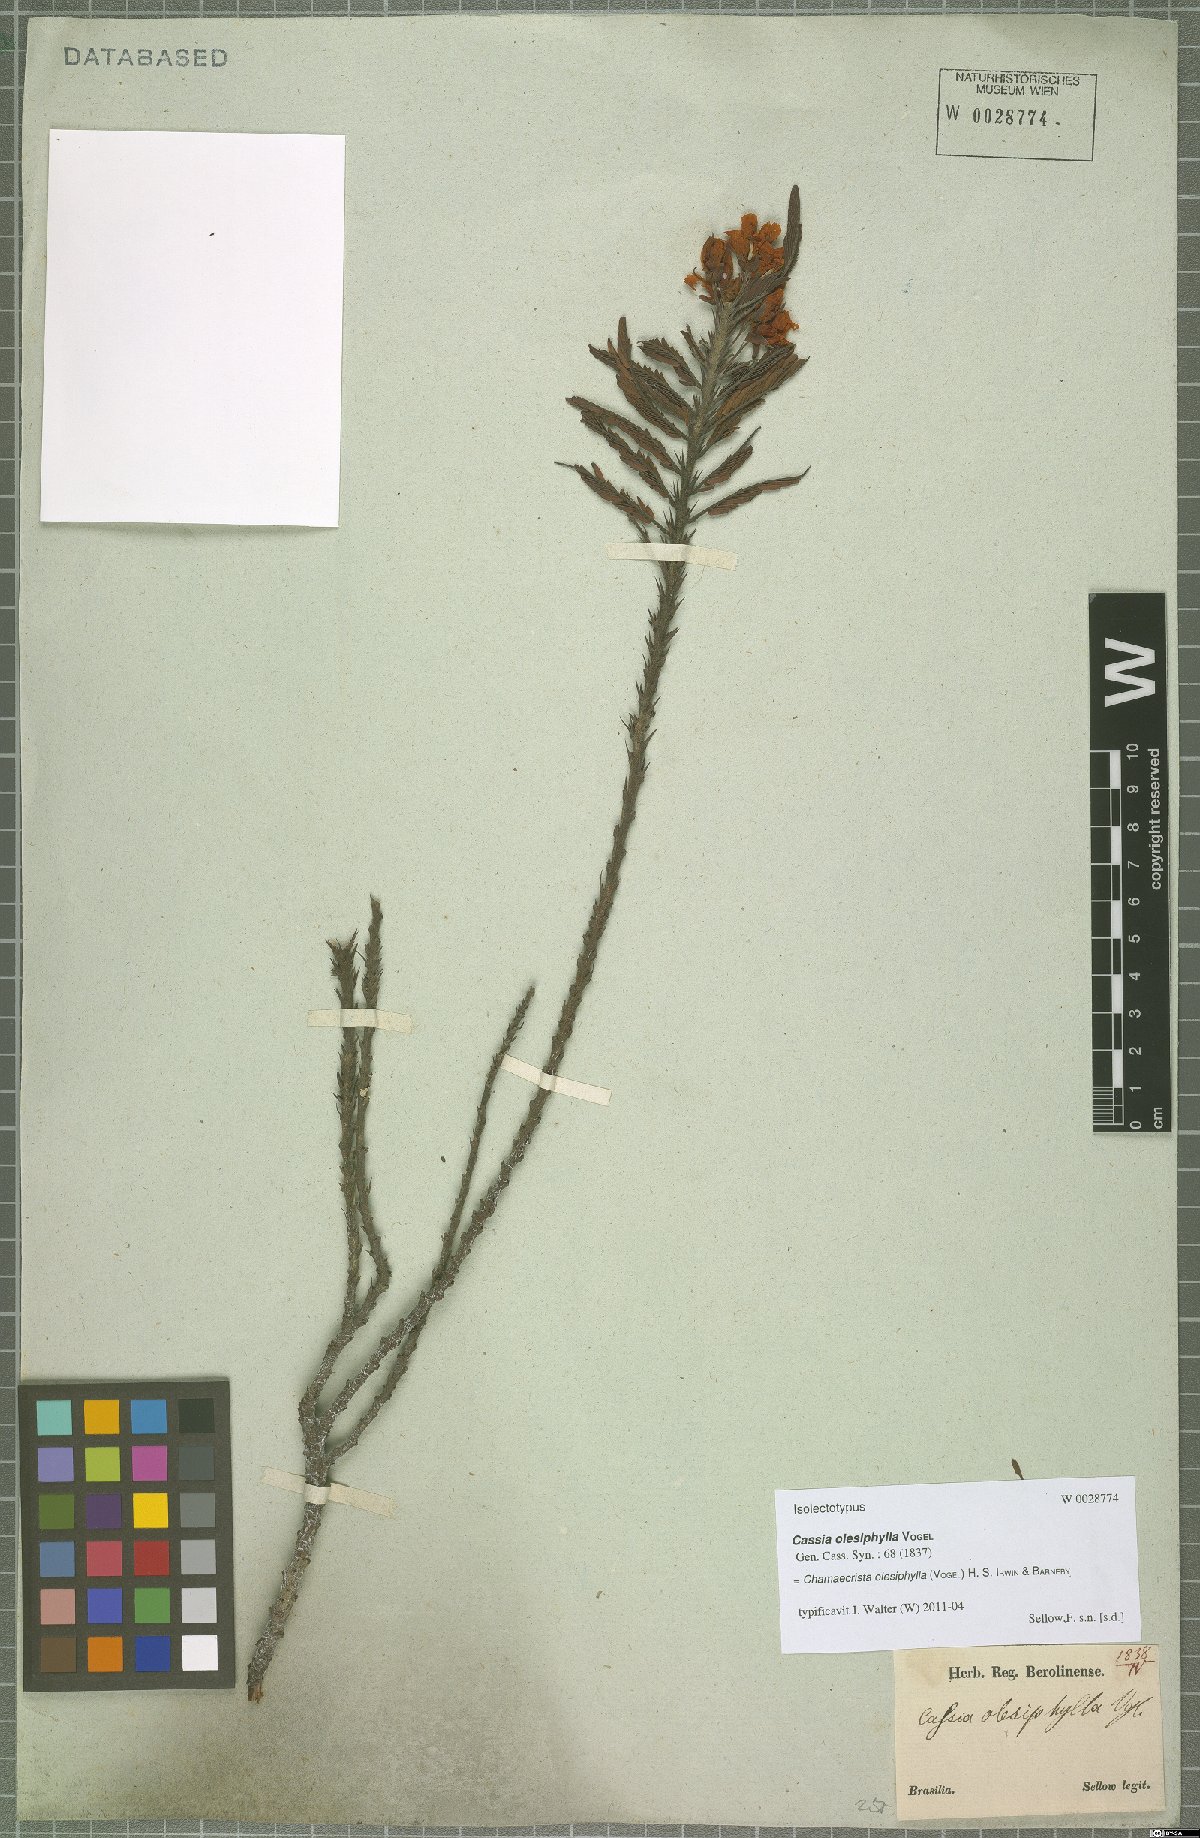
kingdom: Plantae
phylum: Tracheophyta
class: Magnoliopsida
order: Fabales
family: Fabaceae
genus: Chamaecrista
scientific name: Chamaecrista olesiphylla
